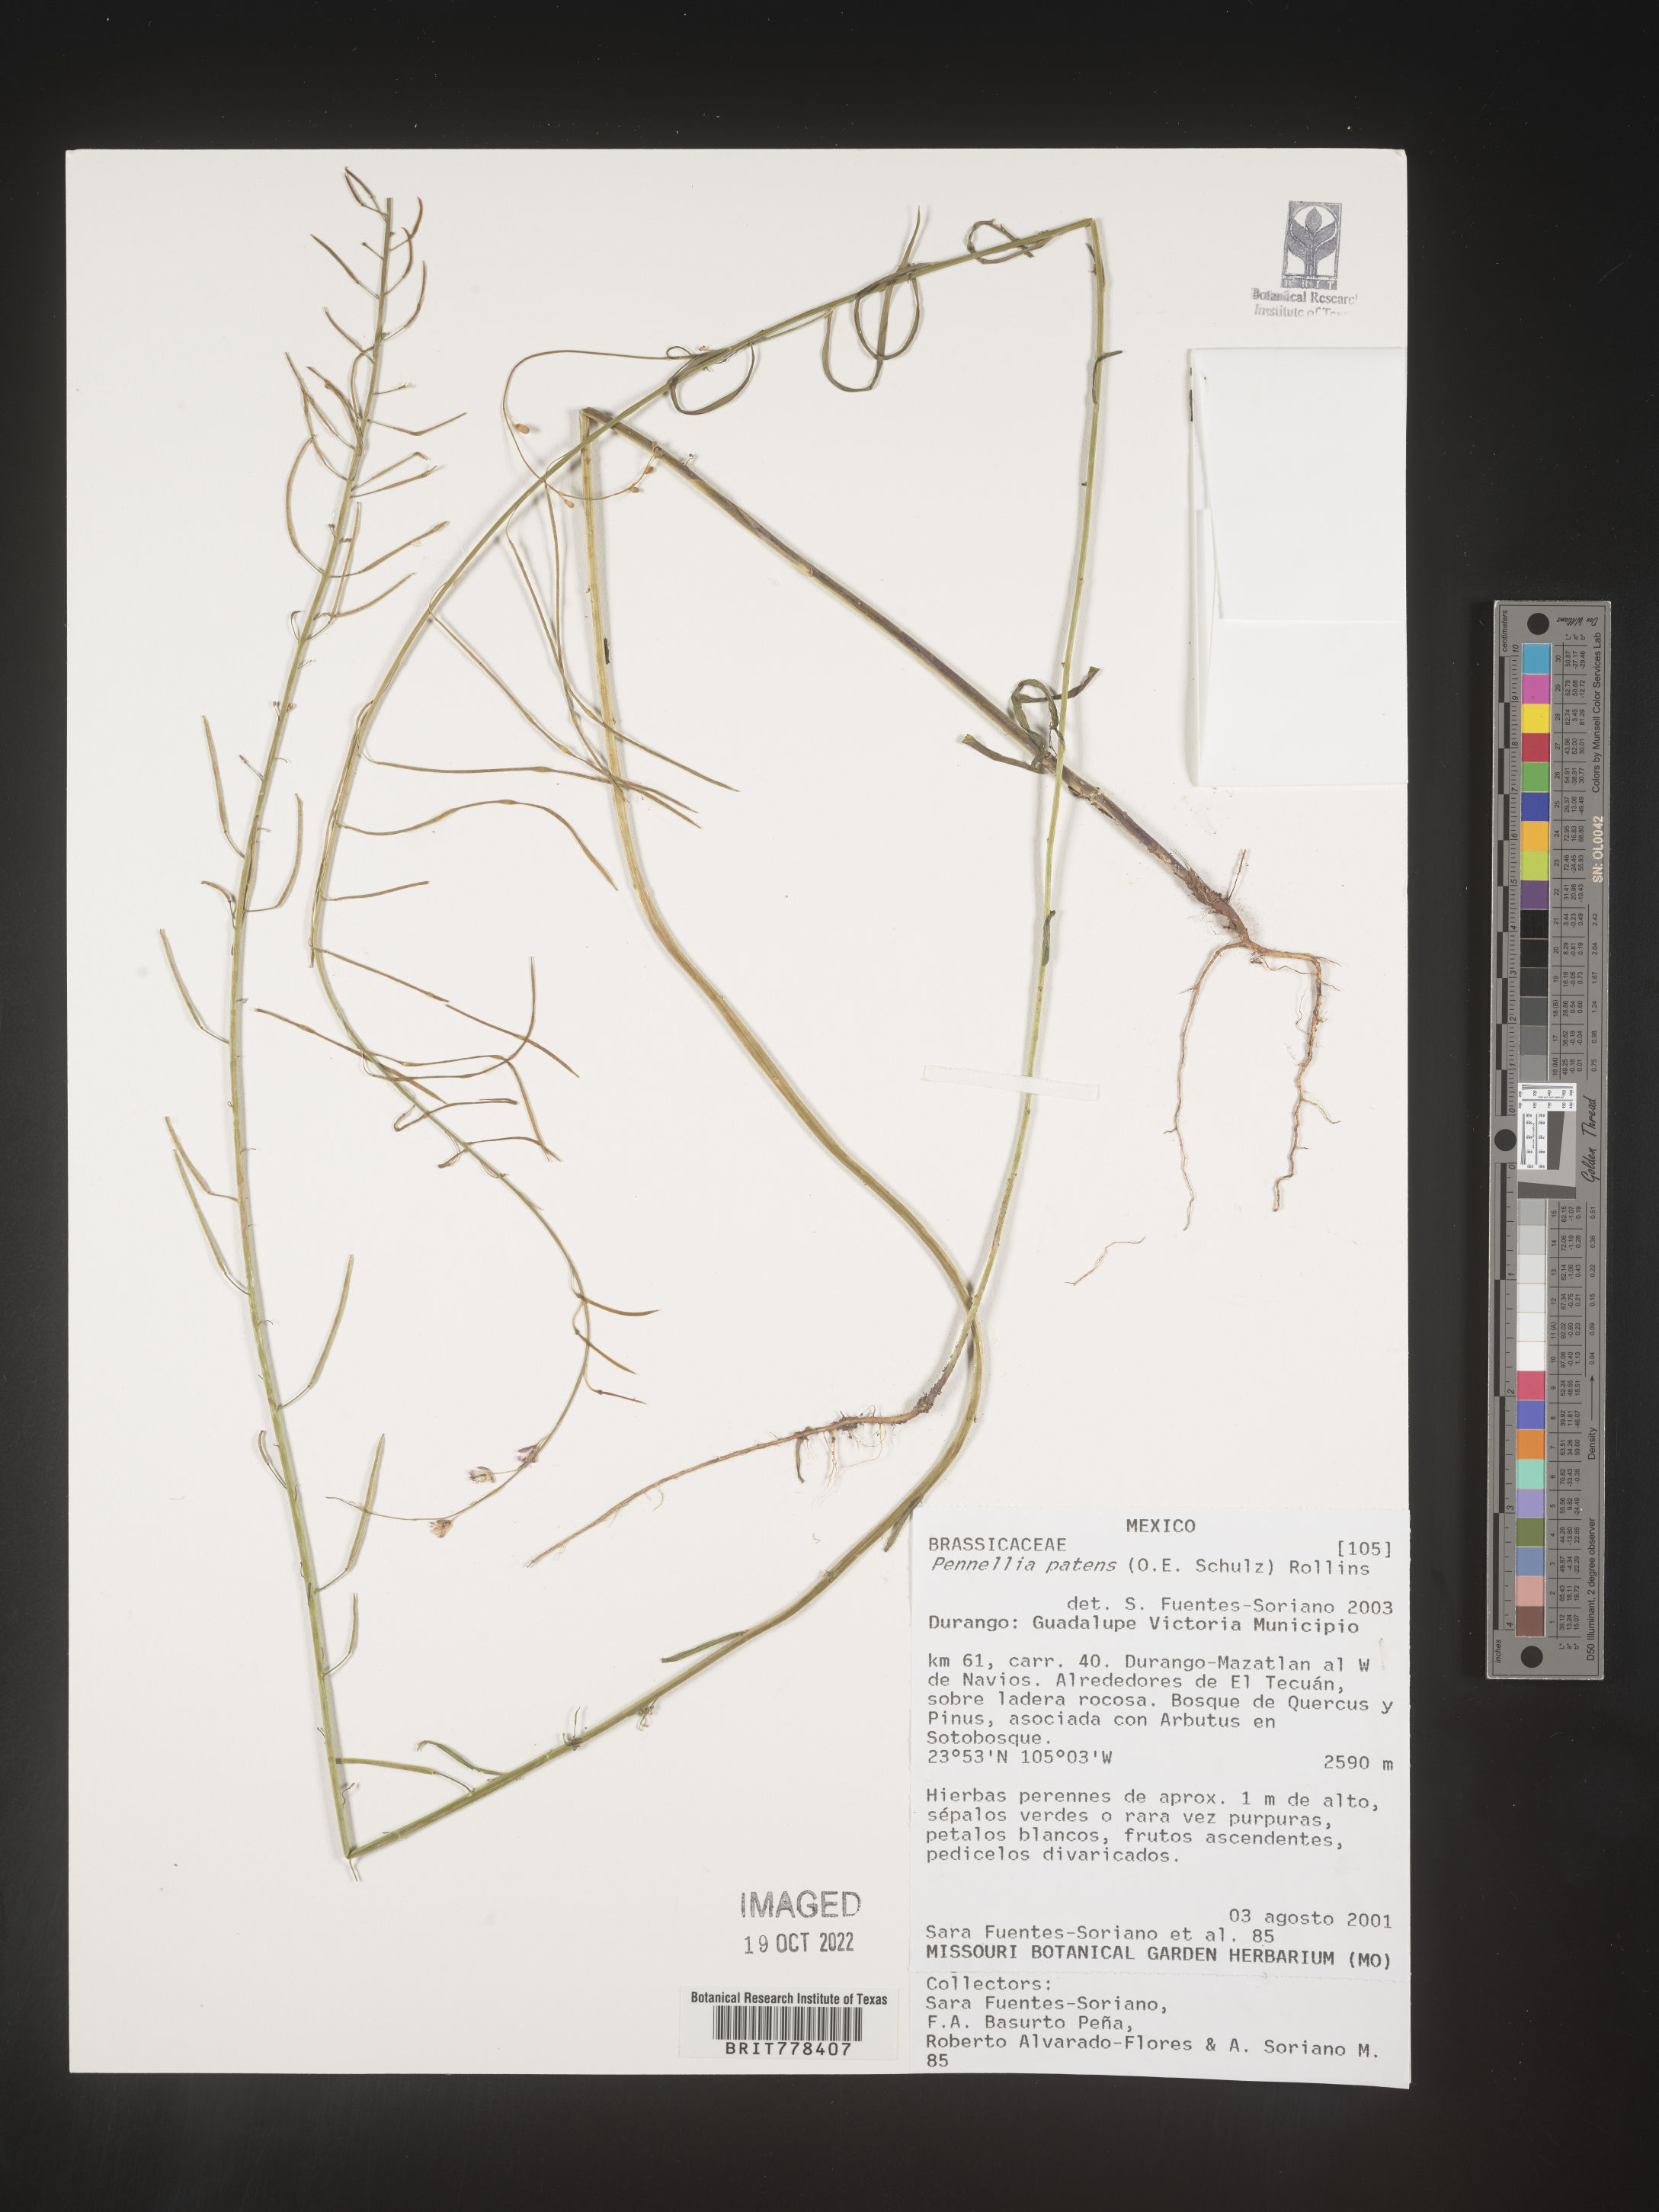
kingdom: Plantae
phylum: Tracheophyta
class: Magnoliopsida
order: Brassicales
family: Brassicaceae
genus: Pennellia
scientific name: Pennellia
